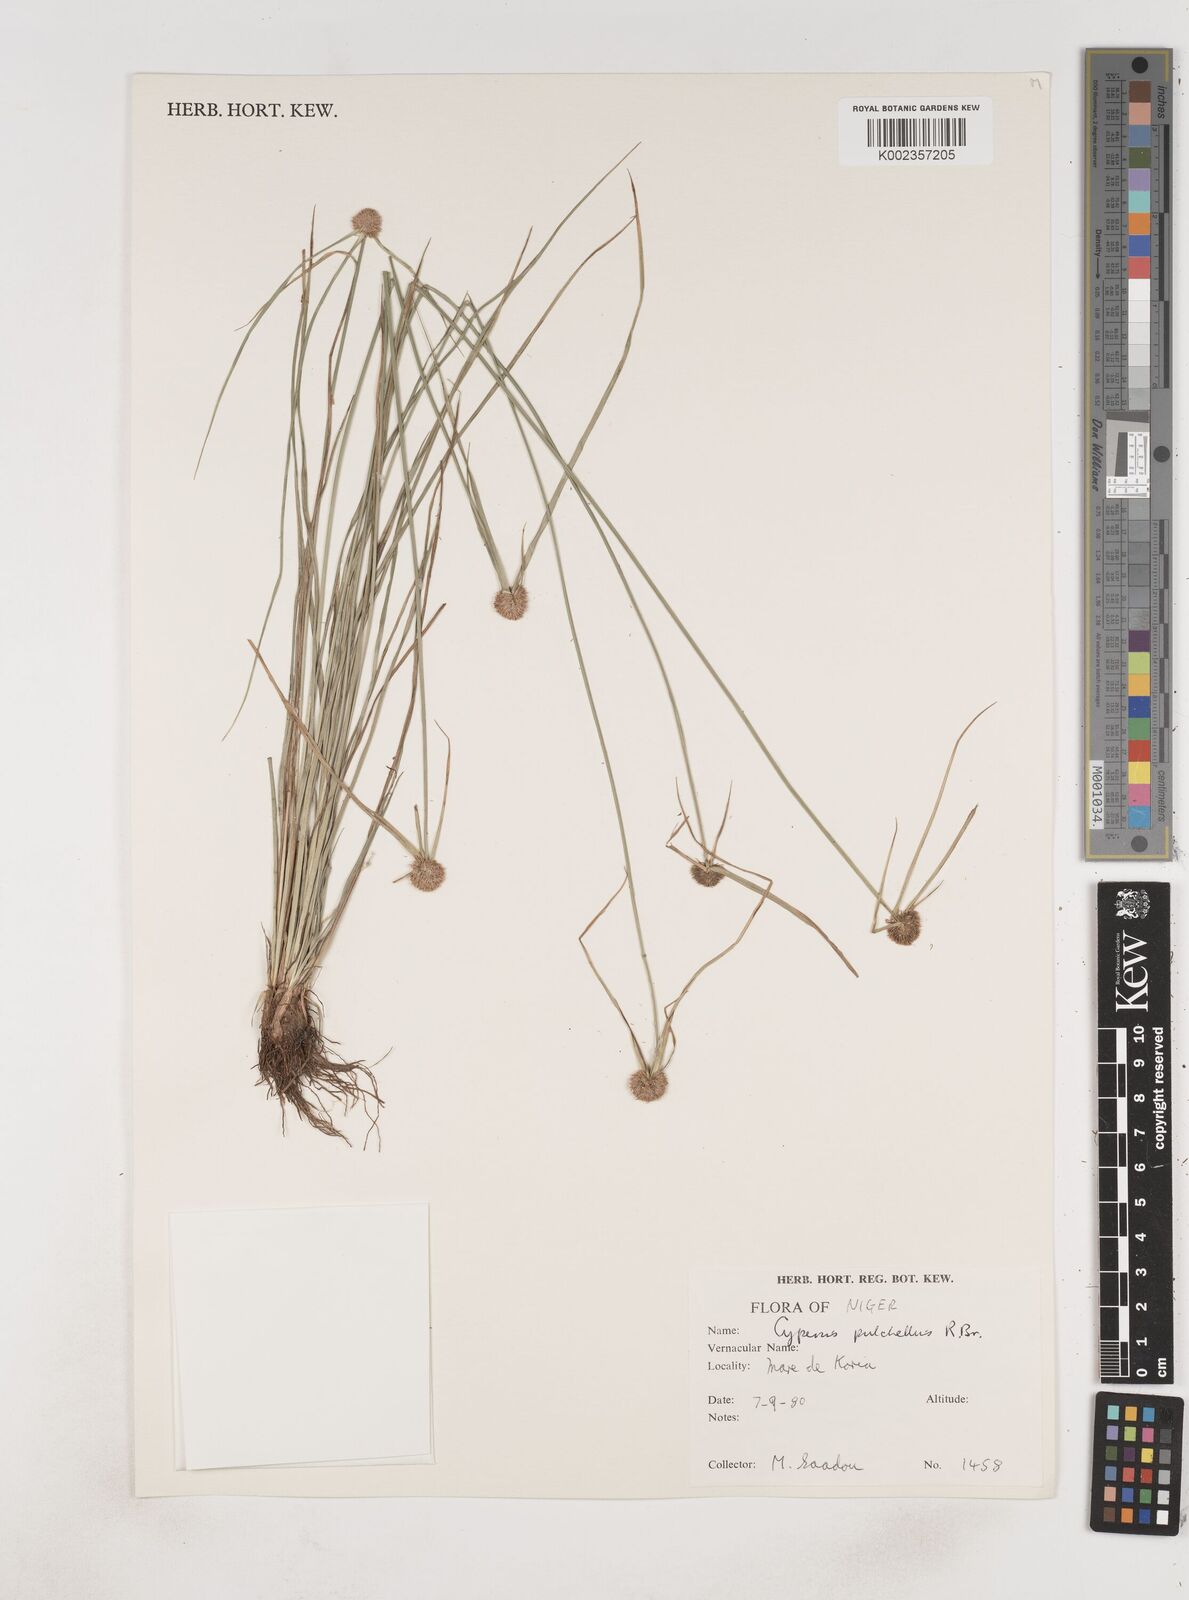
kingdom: Plantae
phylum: Tracheophyta
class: Liliopsida
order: Poales
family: Cyperaceae
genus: Cyperus
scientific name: Cyperus pulchellus
